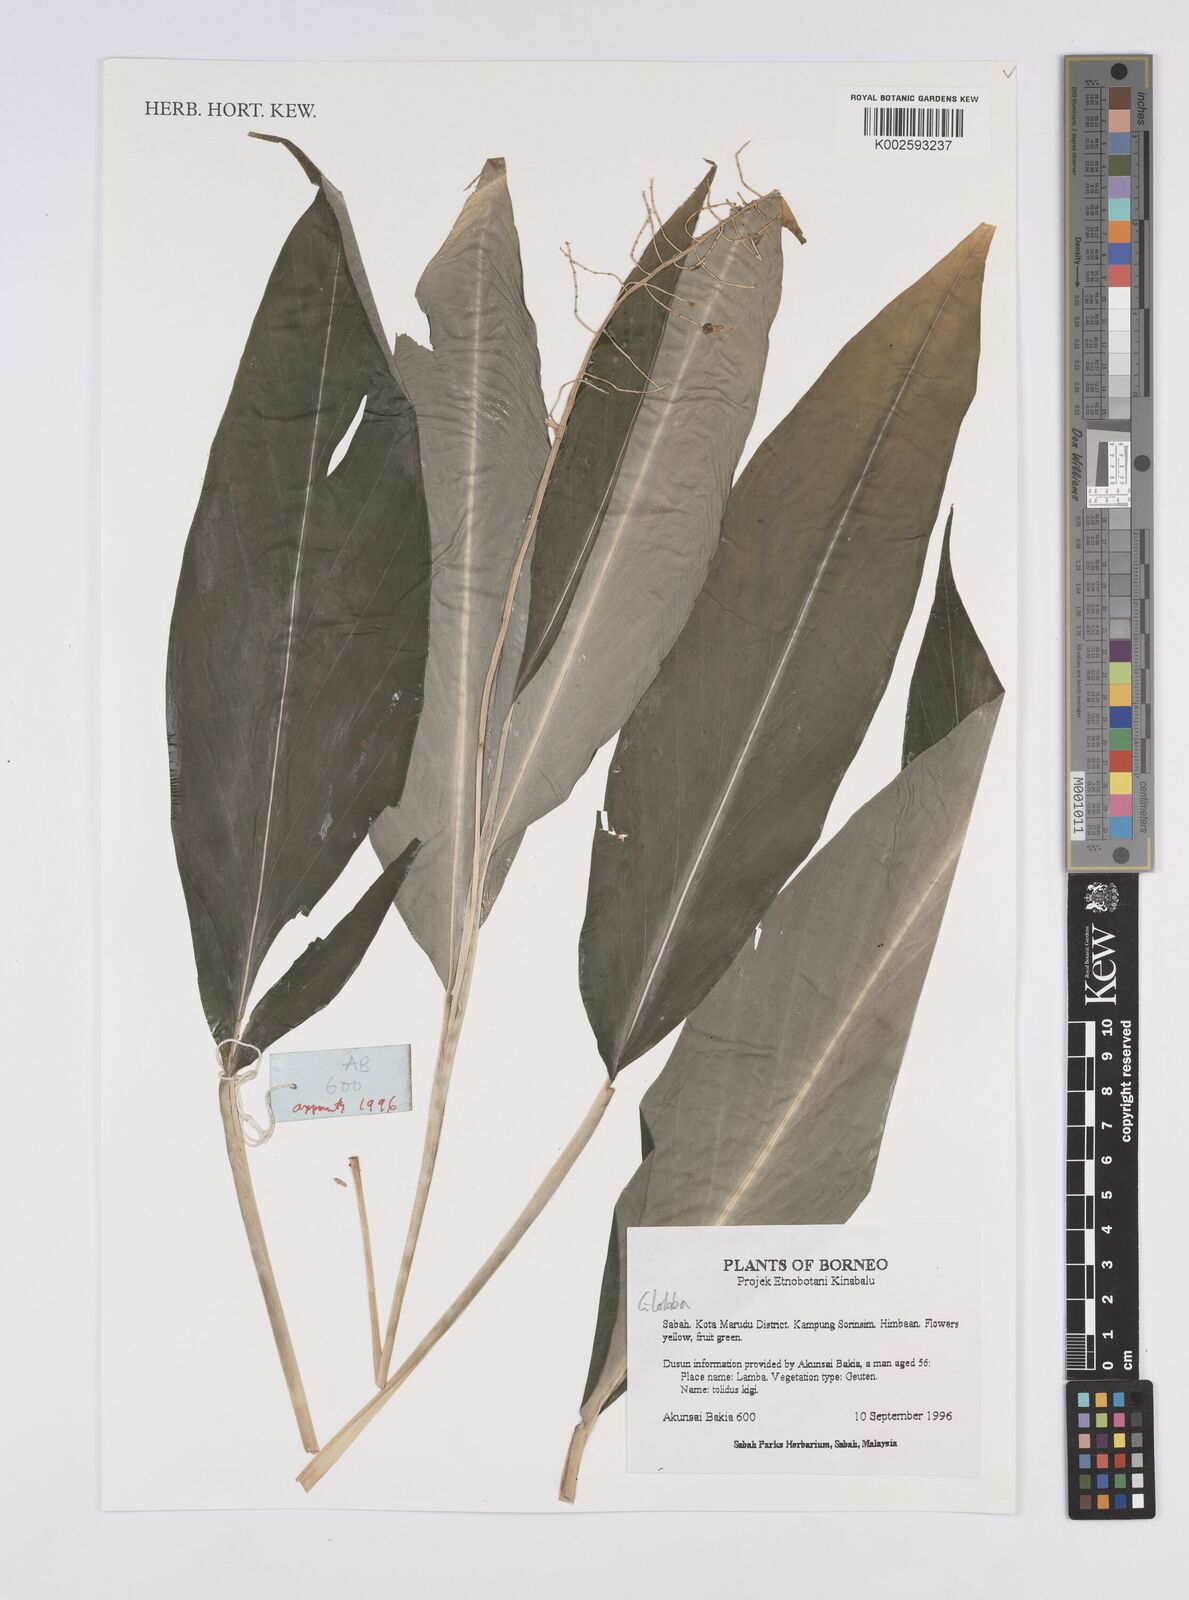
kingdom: Plantae
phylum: Tracheophyta
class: Liliopsida
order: Zingiberales
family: Zingiberaceae
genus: Globba
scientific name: Globba
